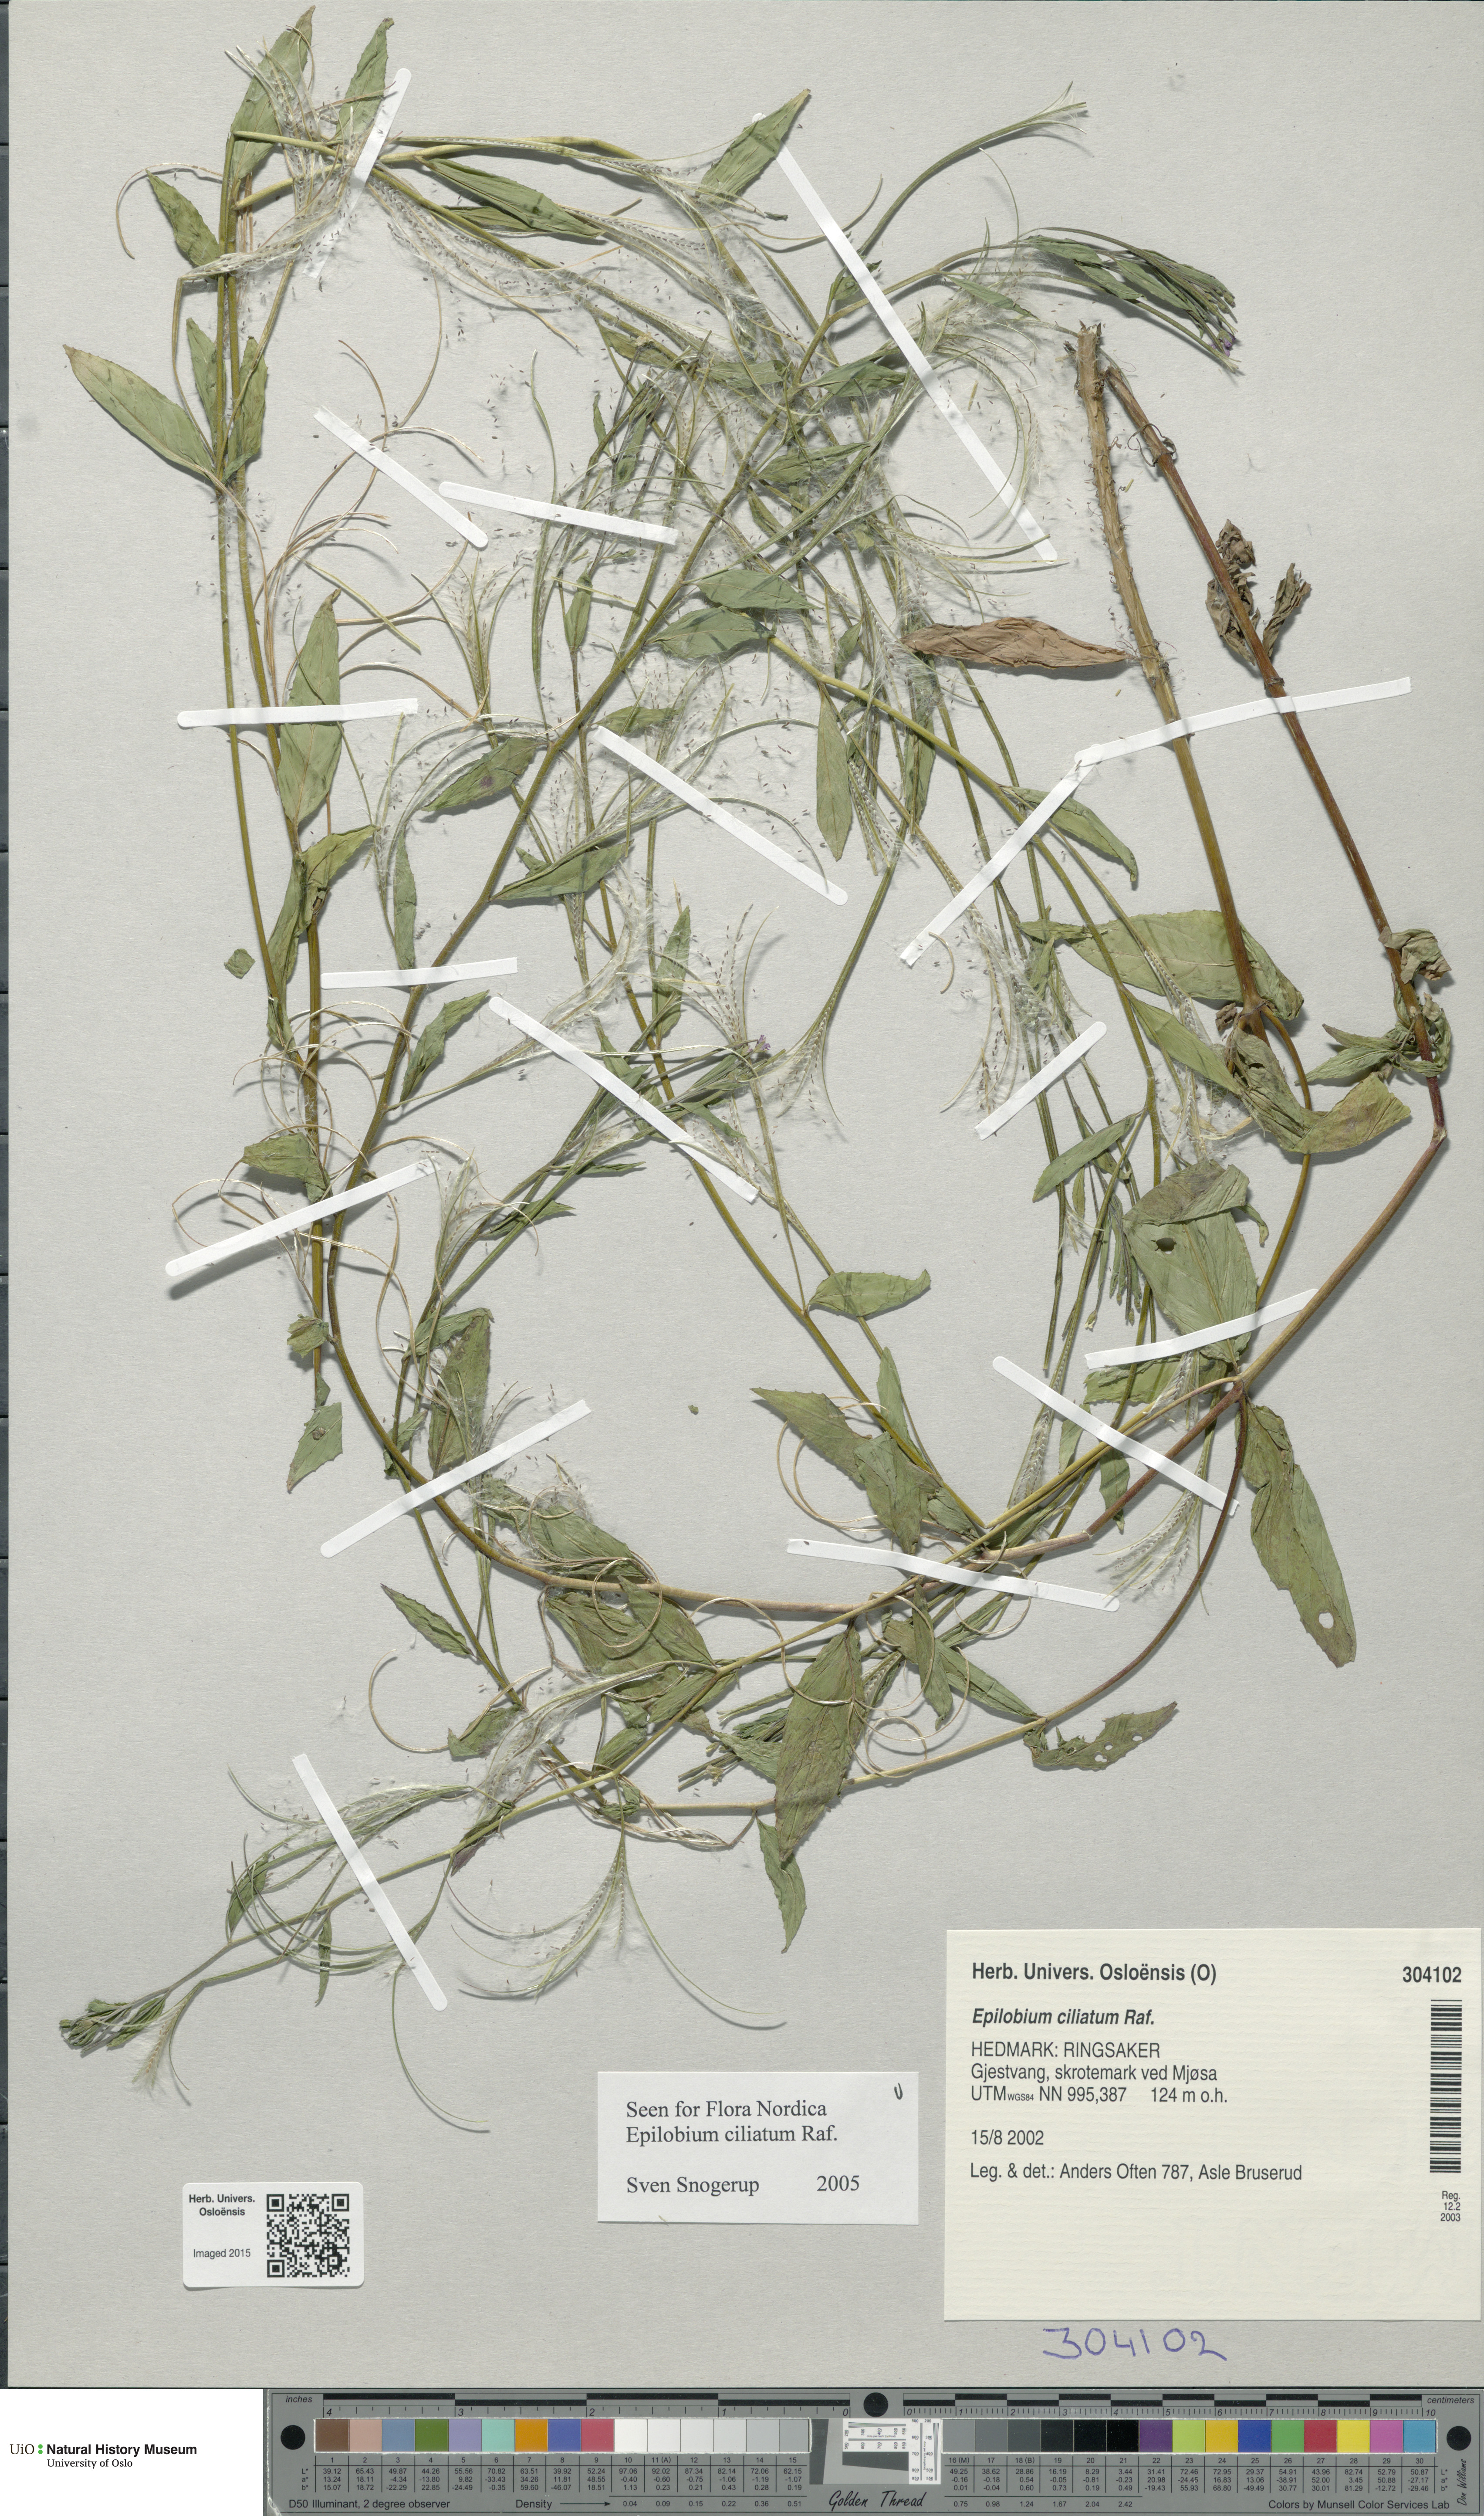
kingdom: Plantae
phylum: Tracheophyta
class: Magnoliopsida
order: Myrtales
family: Onagraceae
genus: Epilobium
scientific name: Epilobium ciliatum
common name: American willowherb
